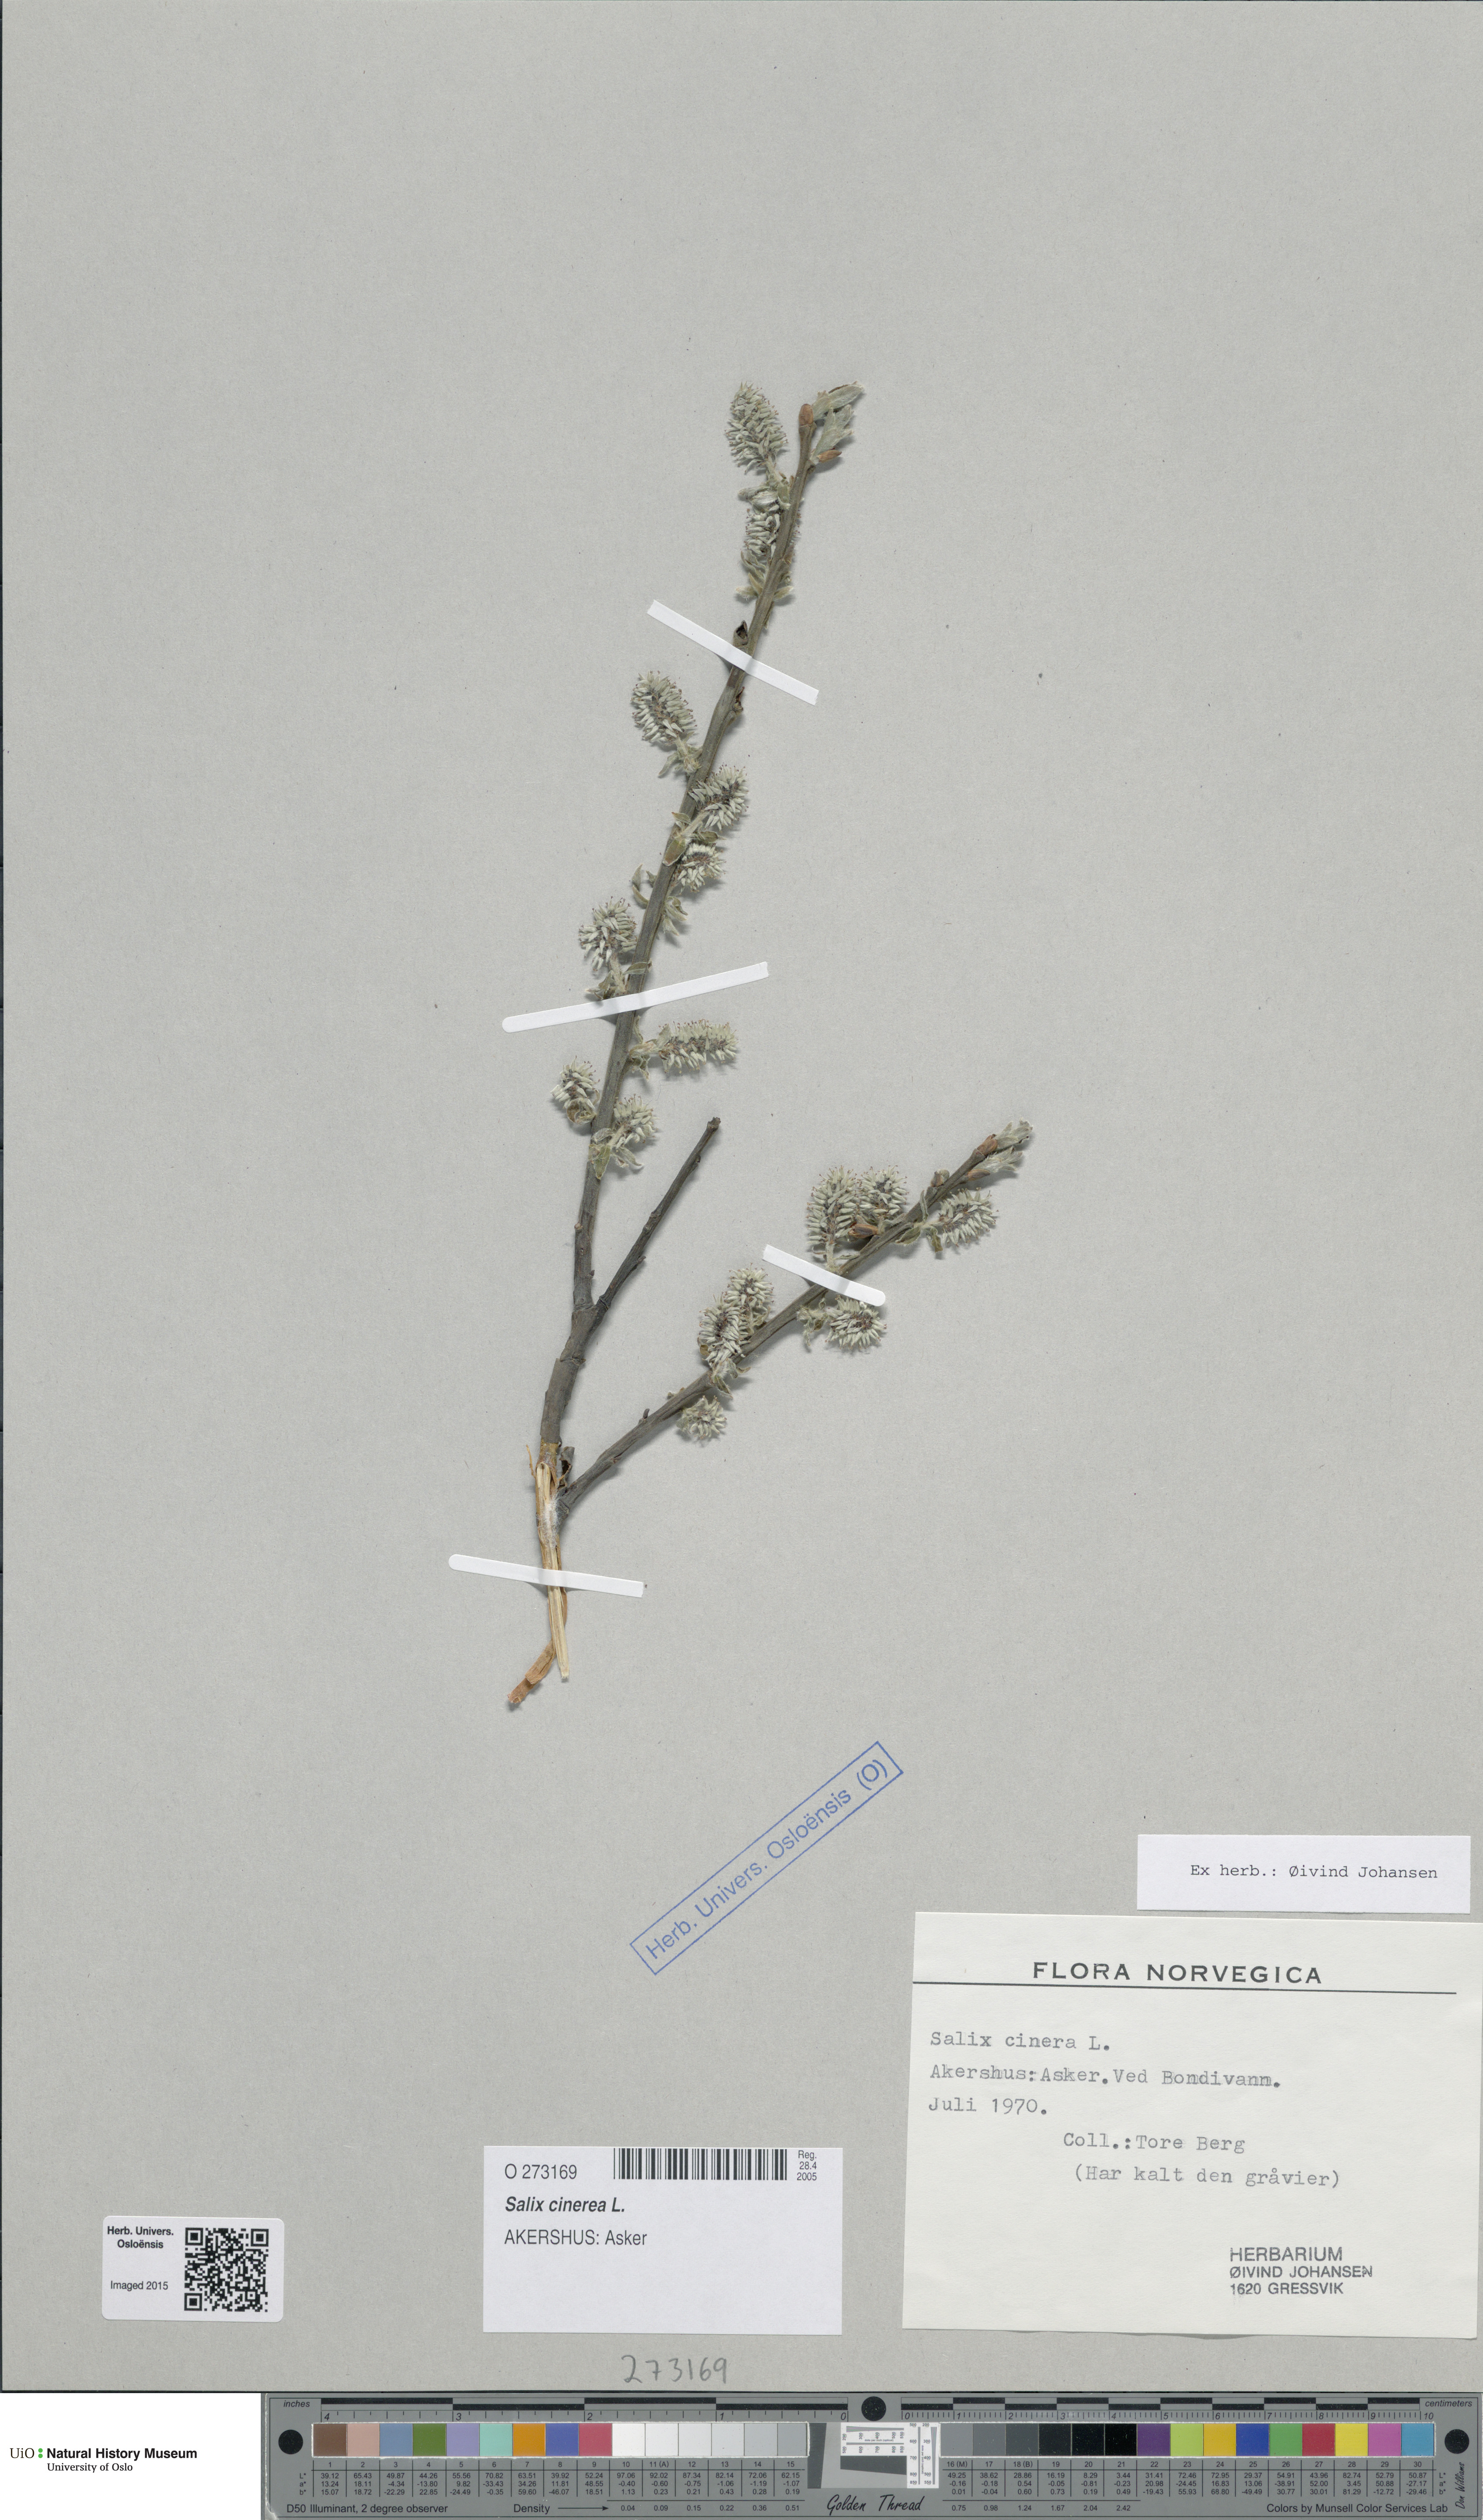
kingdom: Plantae
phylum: Tracheophyta
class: Magnoliopsida
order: Malpighiales
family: Salicaceae
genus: Salix
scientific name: Salix cinerea
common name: Common sallow
